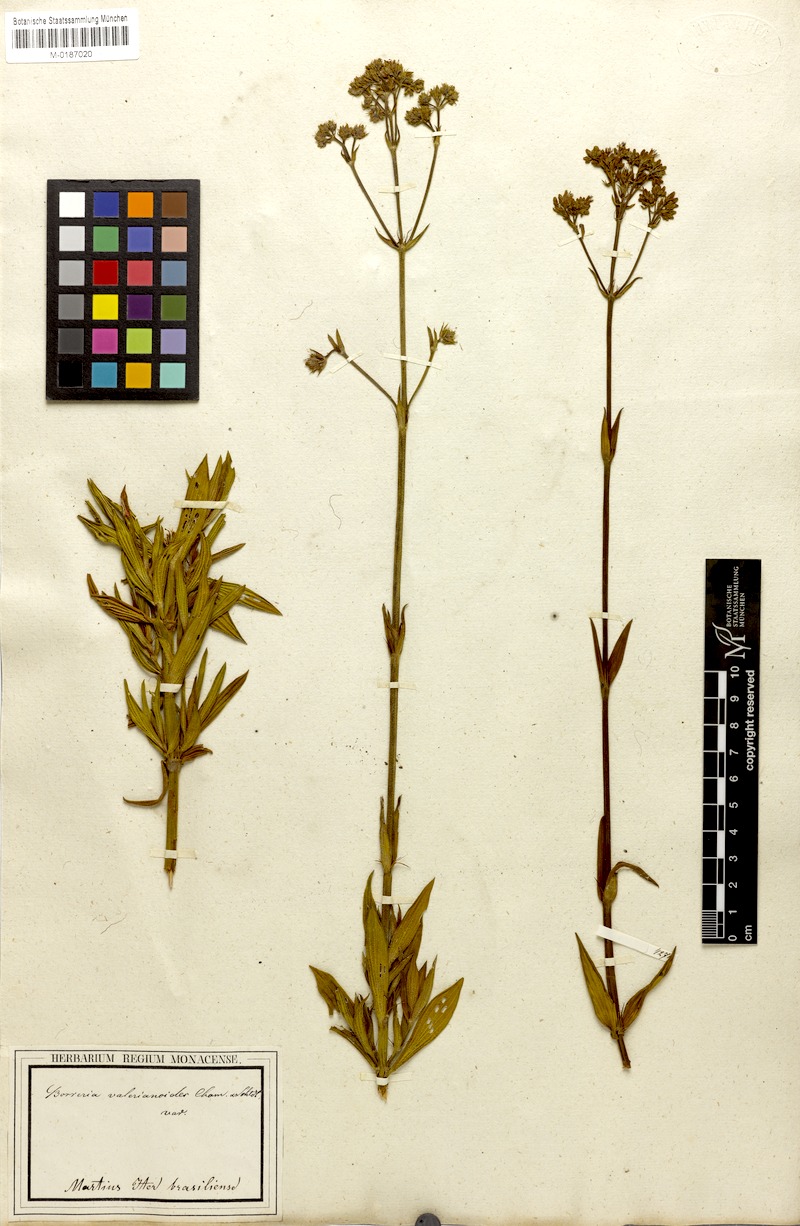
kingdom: Plantae
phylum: Tracheophyta
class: Magnoliopsida
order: Gentianales
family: Rubiaceae
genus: Galianthe
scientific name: Galianthe verbenoides
